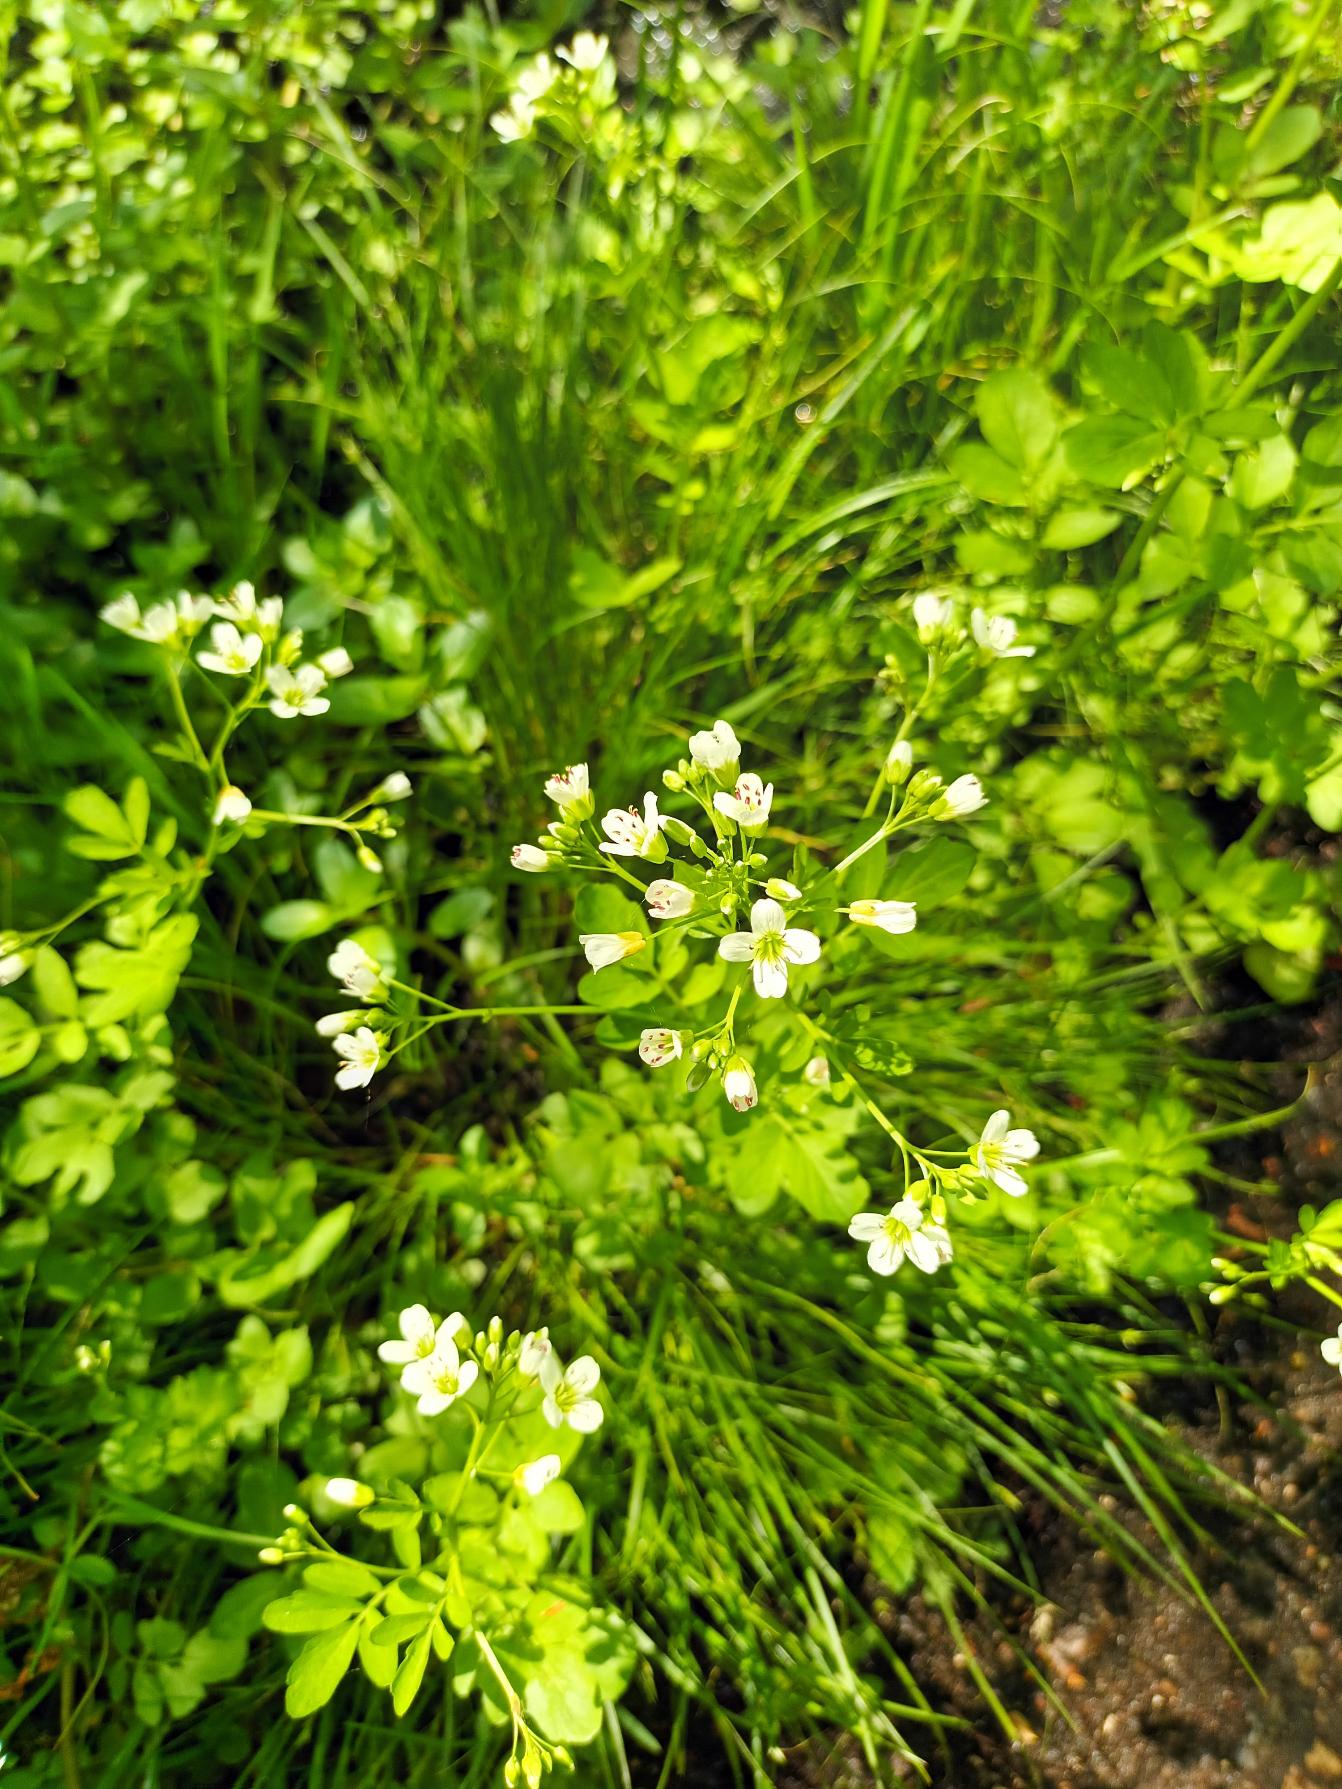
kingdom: Plantae
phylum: Tracheophyta
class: Magnoliopsida
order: Brassicales
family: Brassicaceae
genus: Cardamine
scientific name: Cardamine amara
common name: Vandkarse
